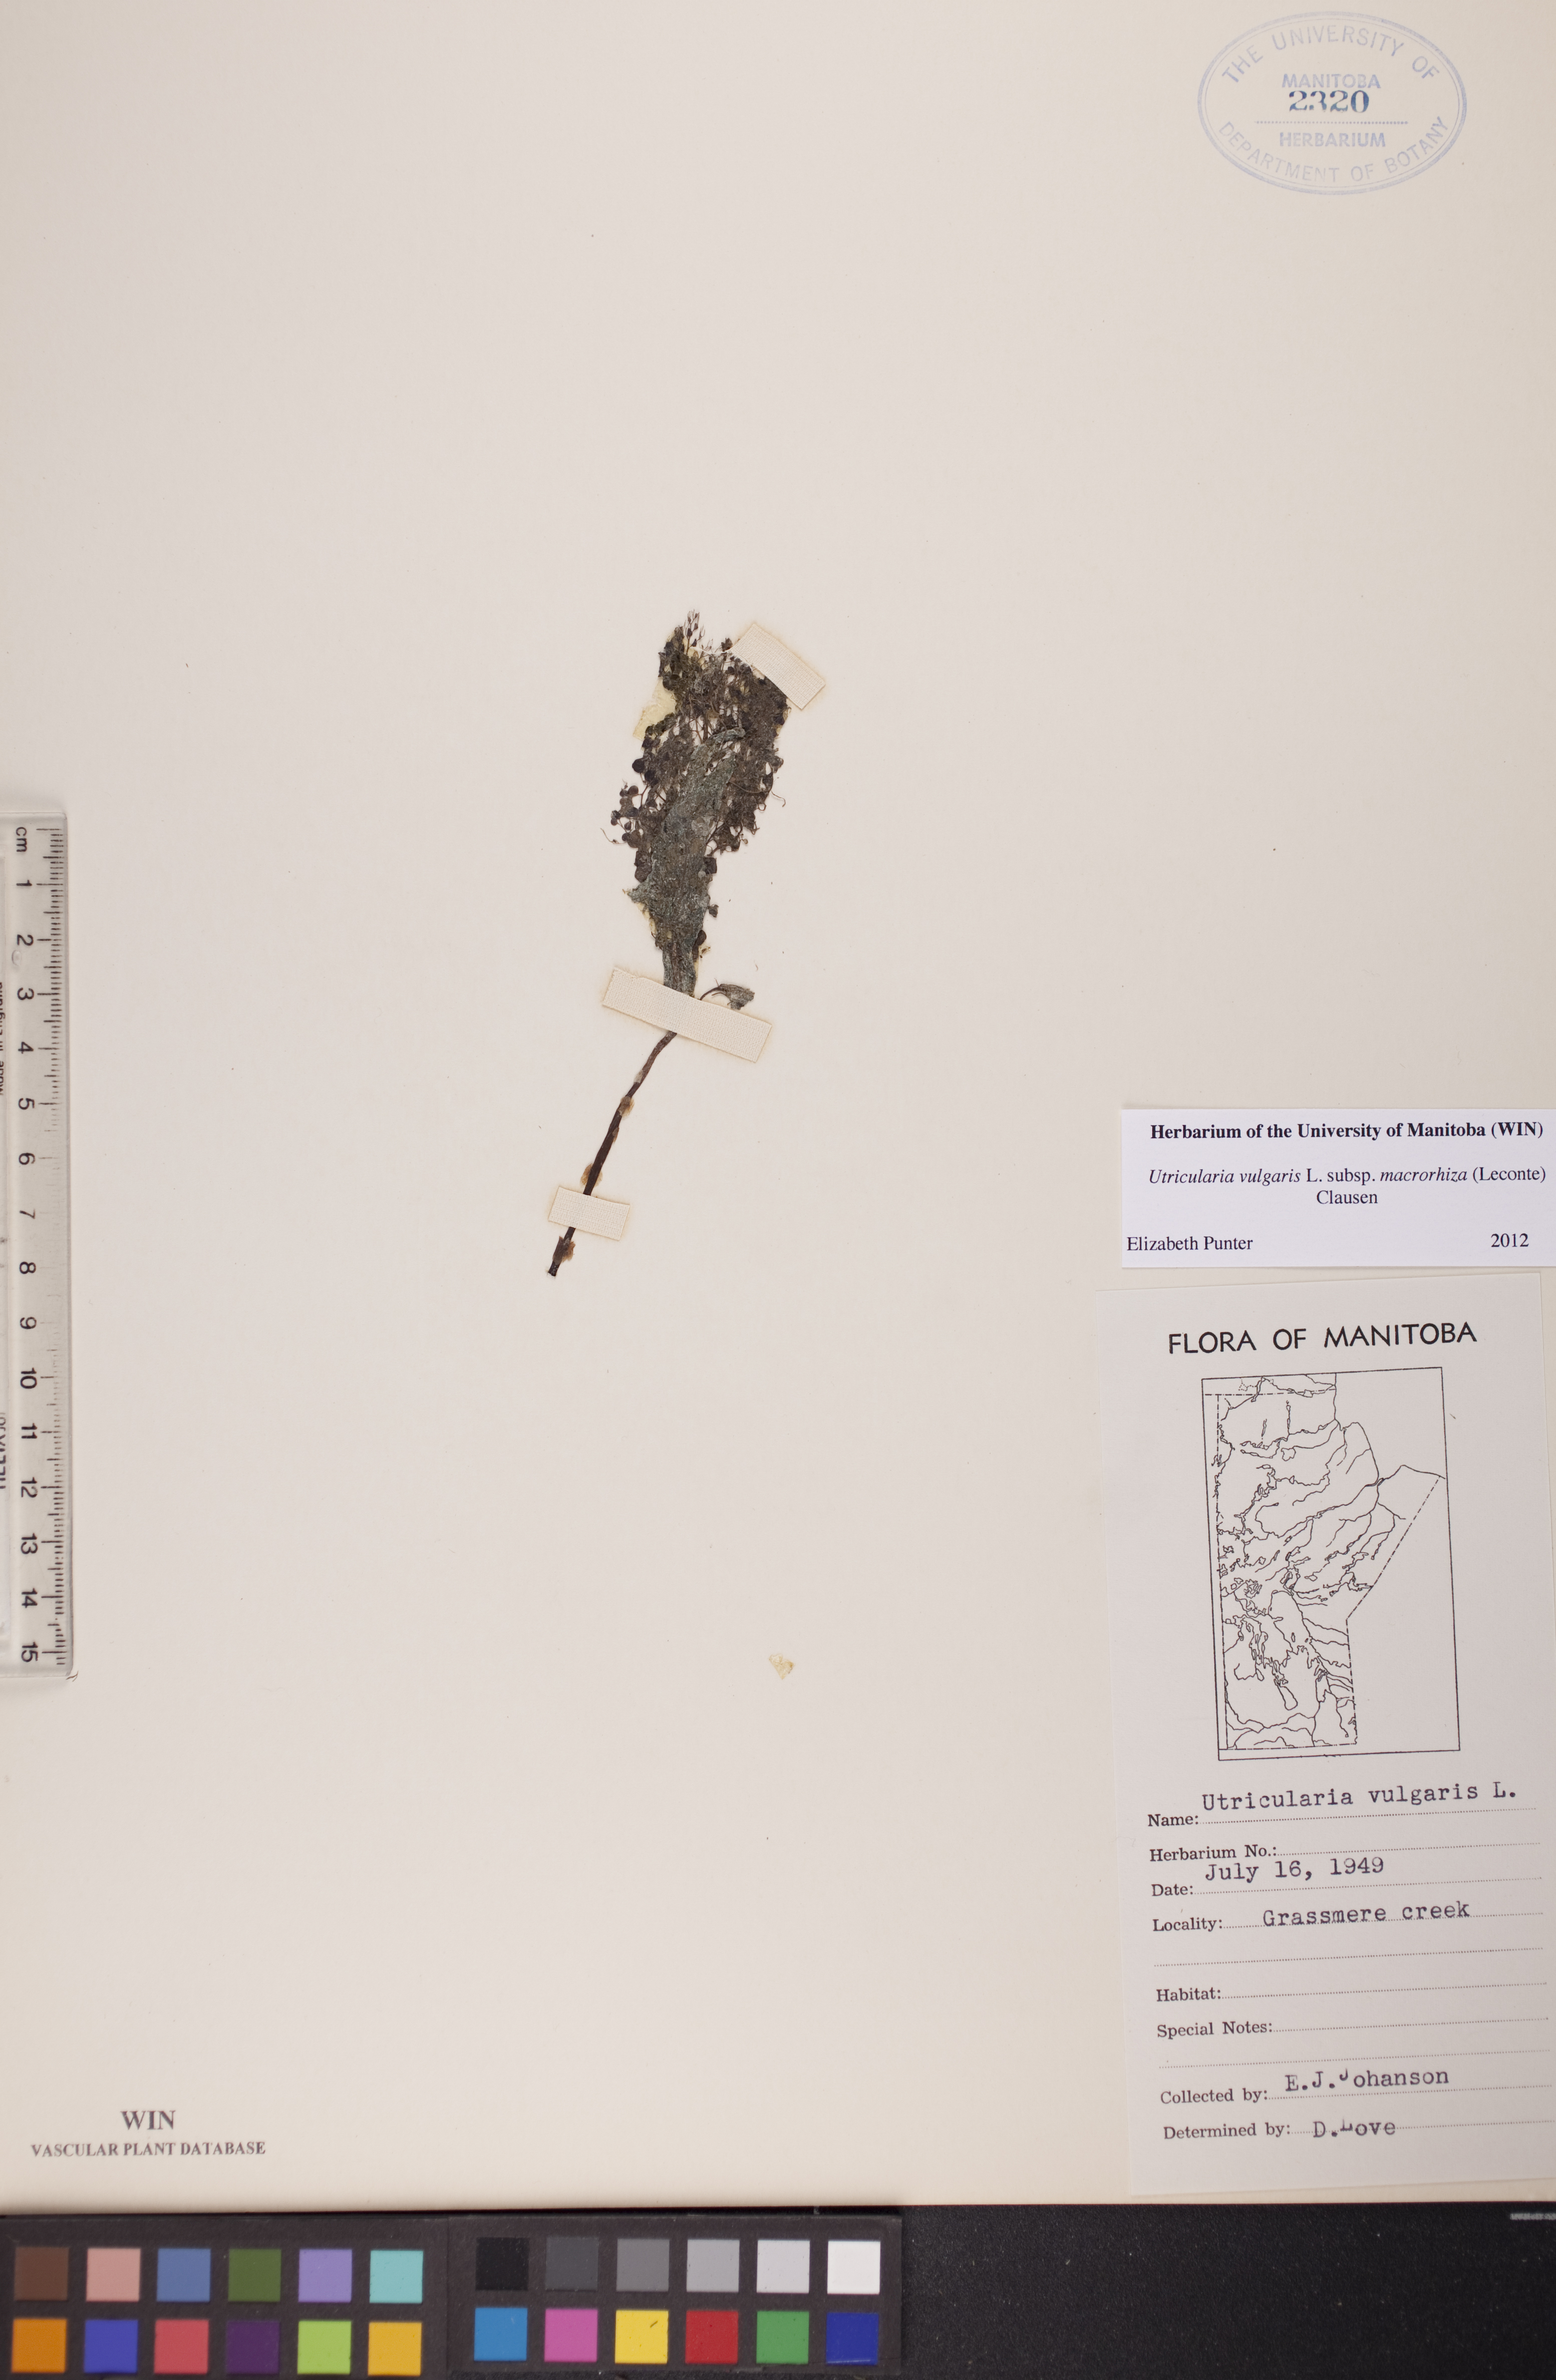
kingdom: Plantae
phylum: Tracheophyta
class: Magnoliopsida
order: Lamiales
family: Lentibulariaceae
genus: Utricularia
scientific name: Utricularia macrorhiza
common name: Common bladderwort
